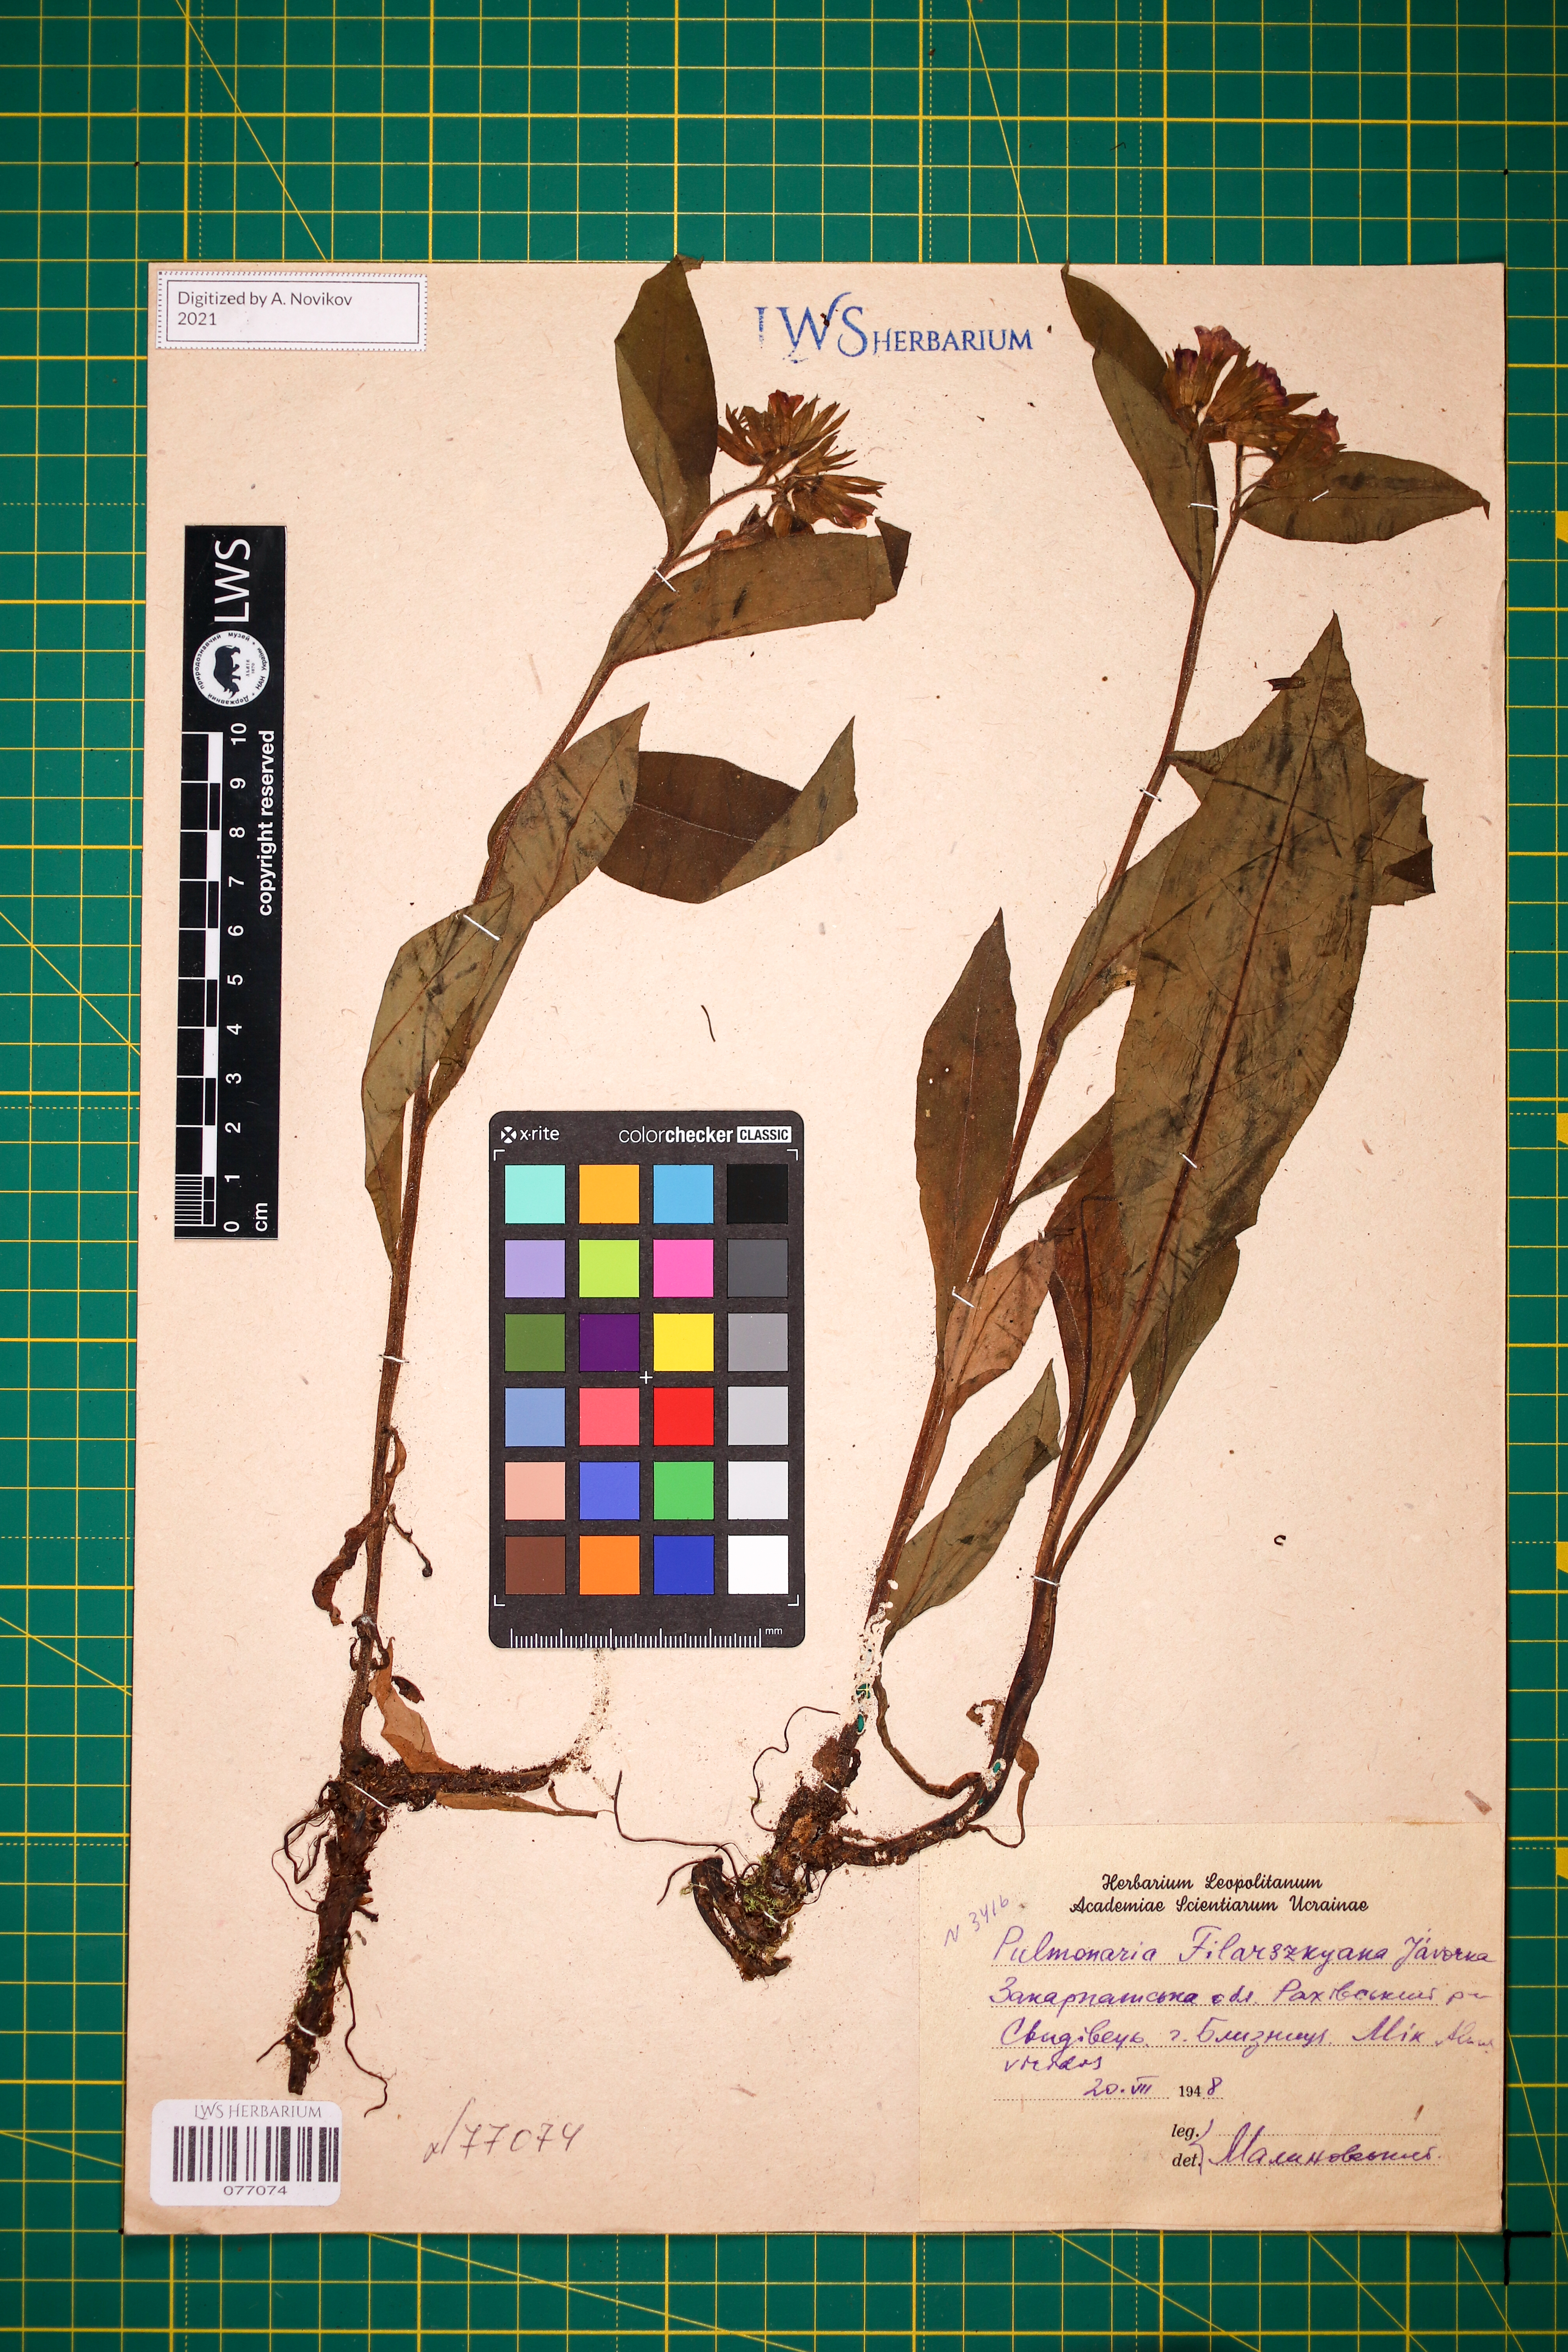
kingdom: Plantae
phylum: Tracheophyta
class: Magnoliopsida
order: Boraginales
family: Boraginaceae
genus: Pulmonaria
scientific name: Pulmonaria filarszkyana
